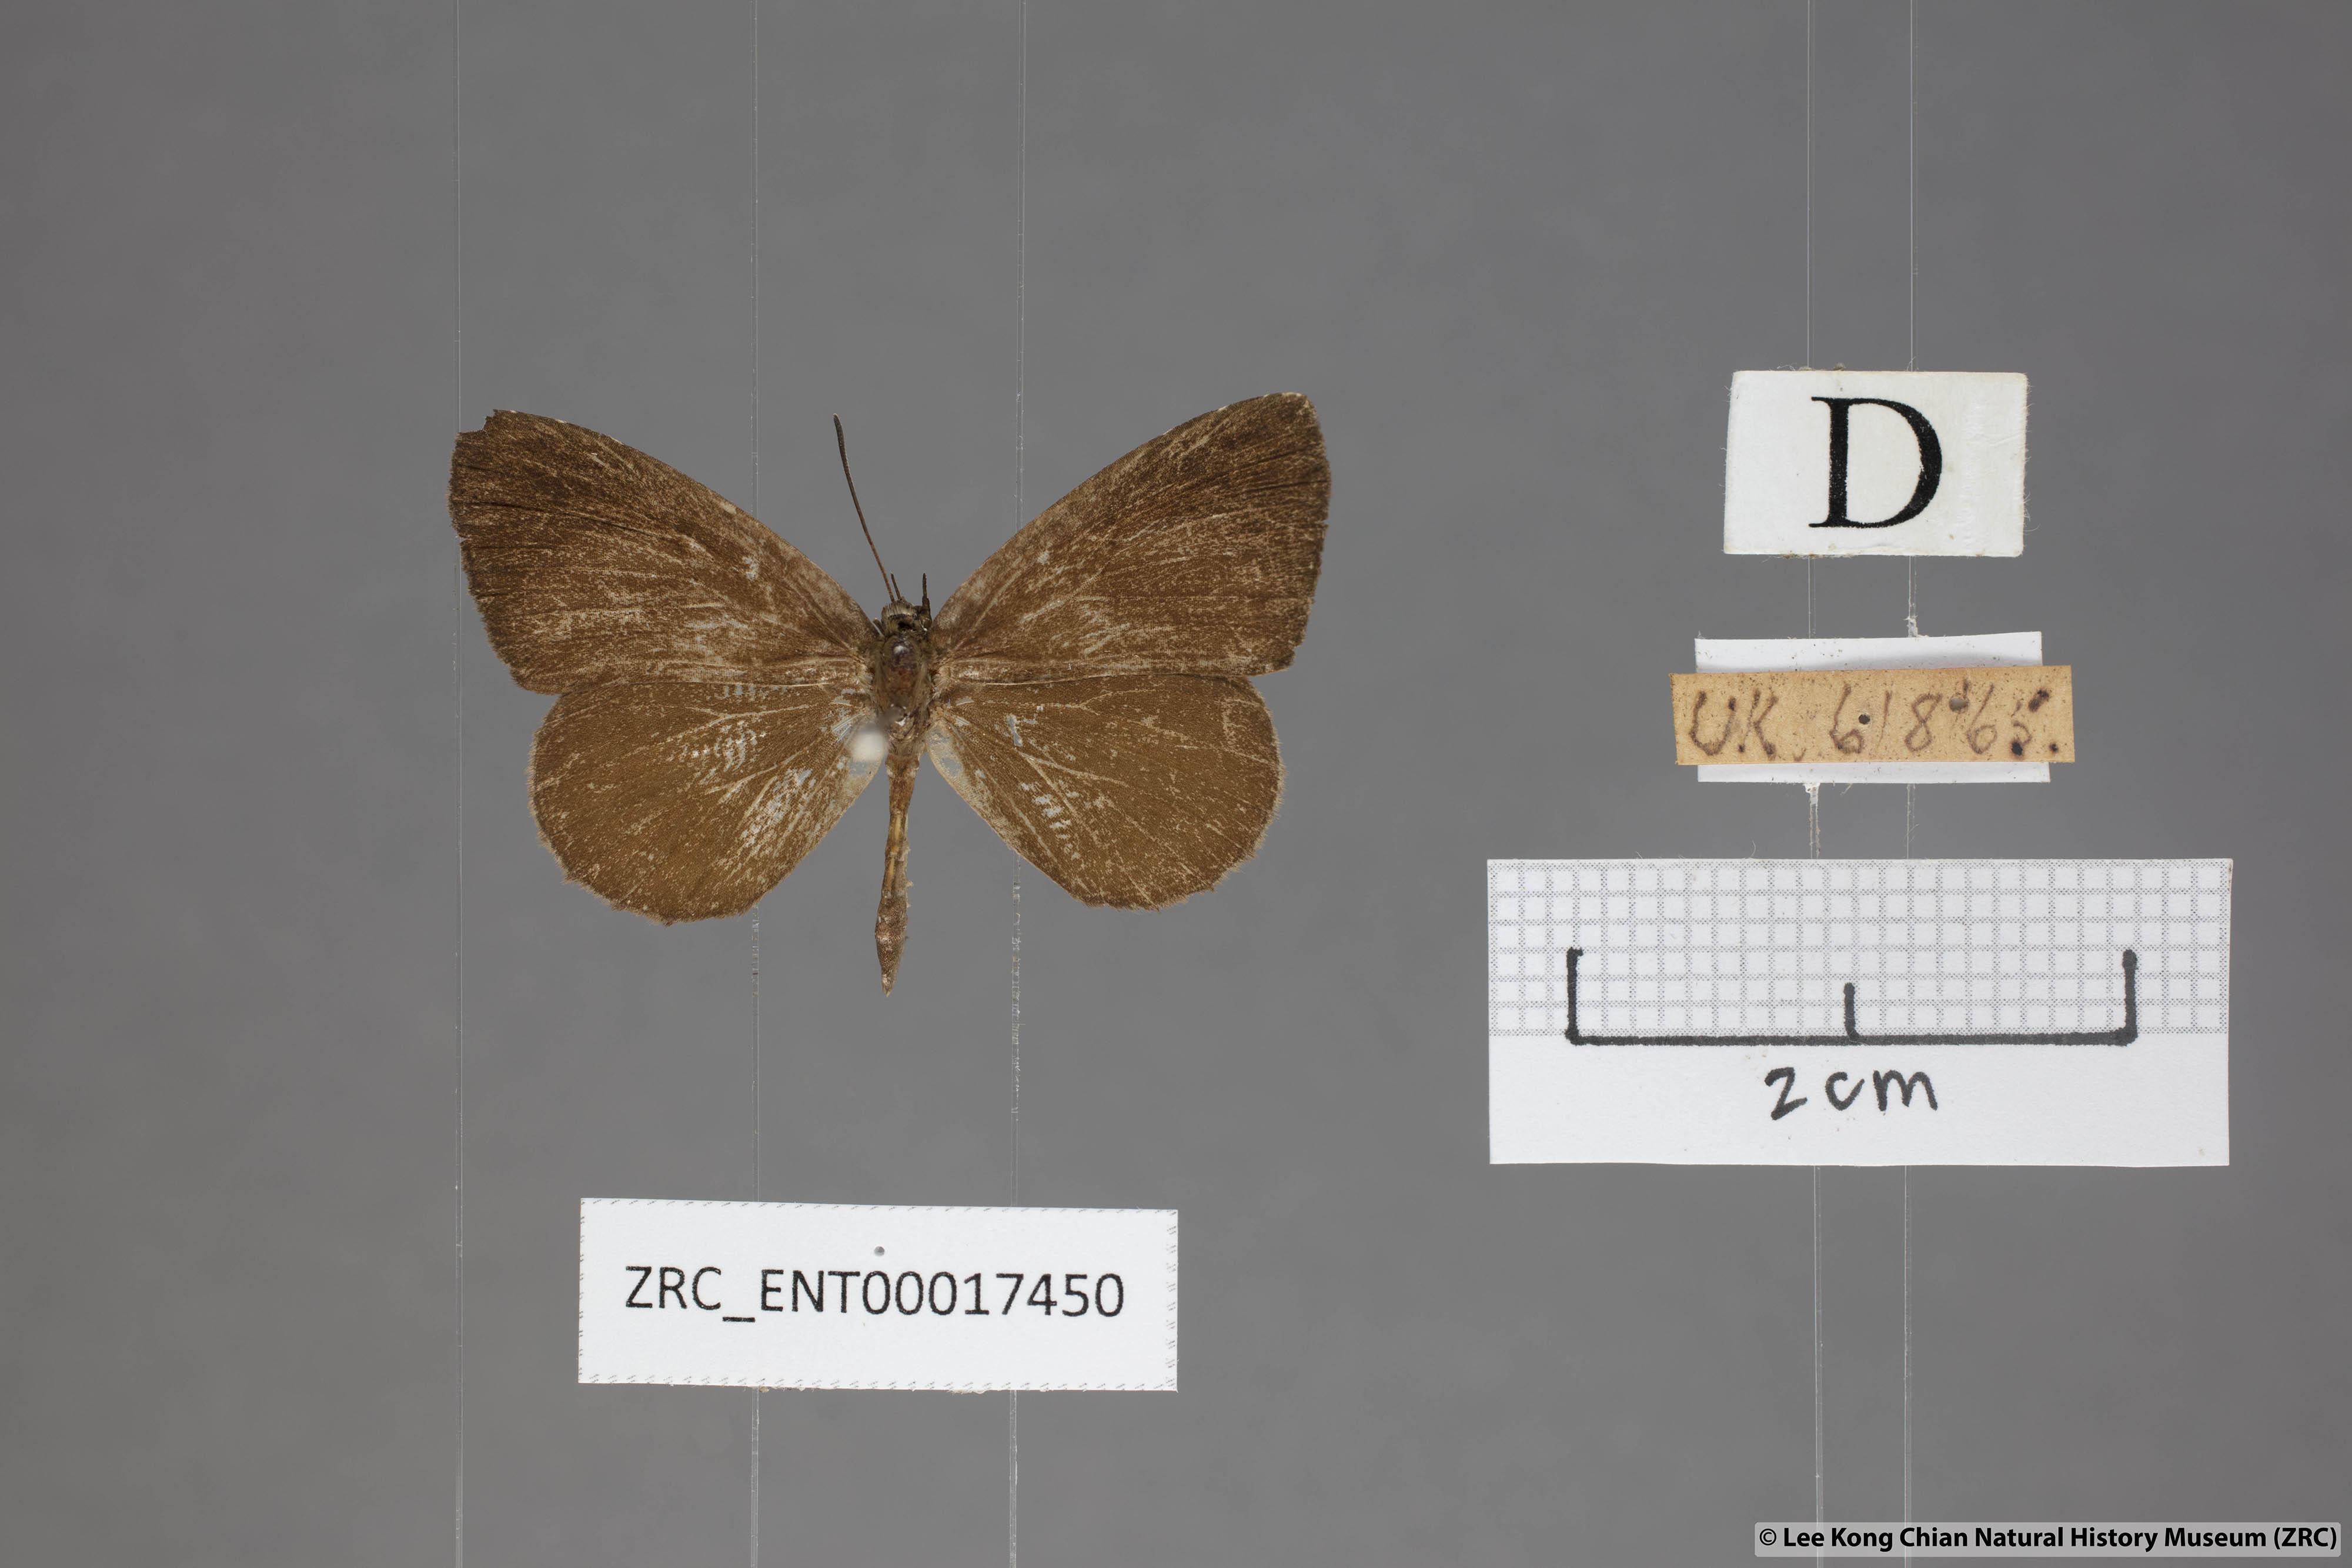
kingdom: Animalia
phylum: Arthropoda
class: Insecta
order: Lepidoptera
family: Lycaenidae
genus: Miletus
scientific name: Miletus gaesa
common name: Brown brownie
